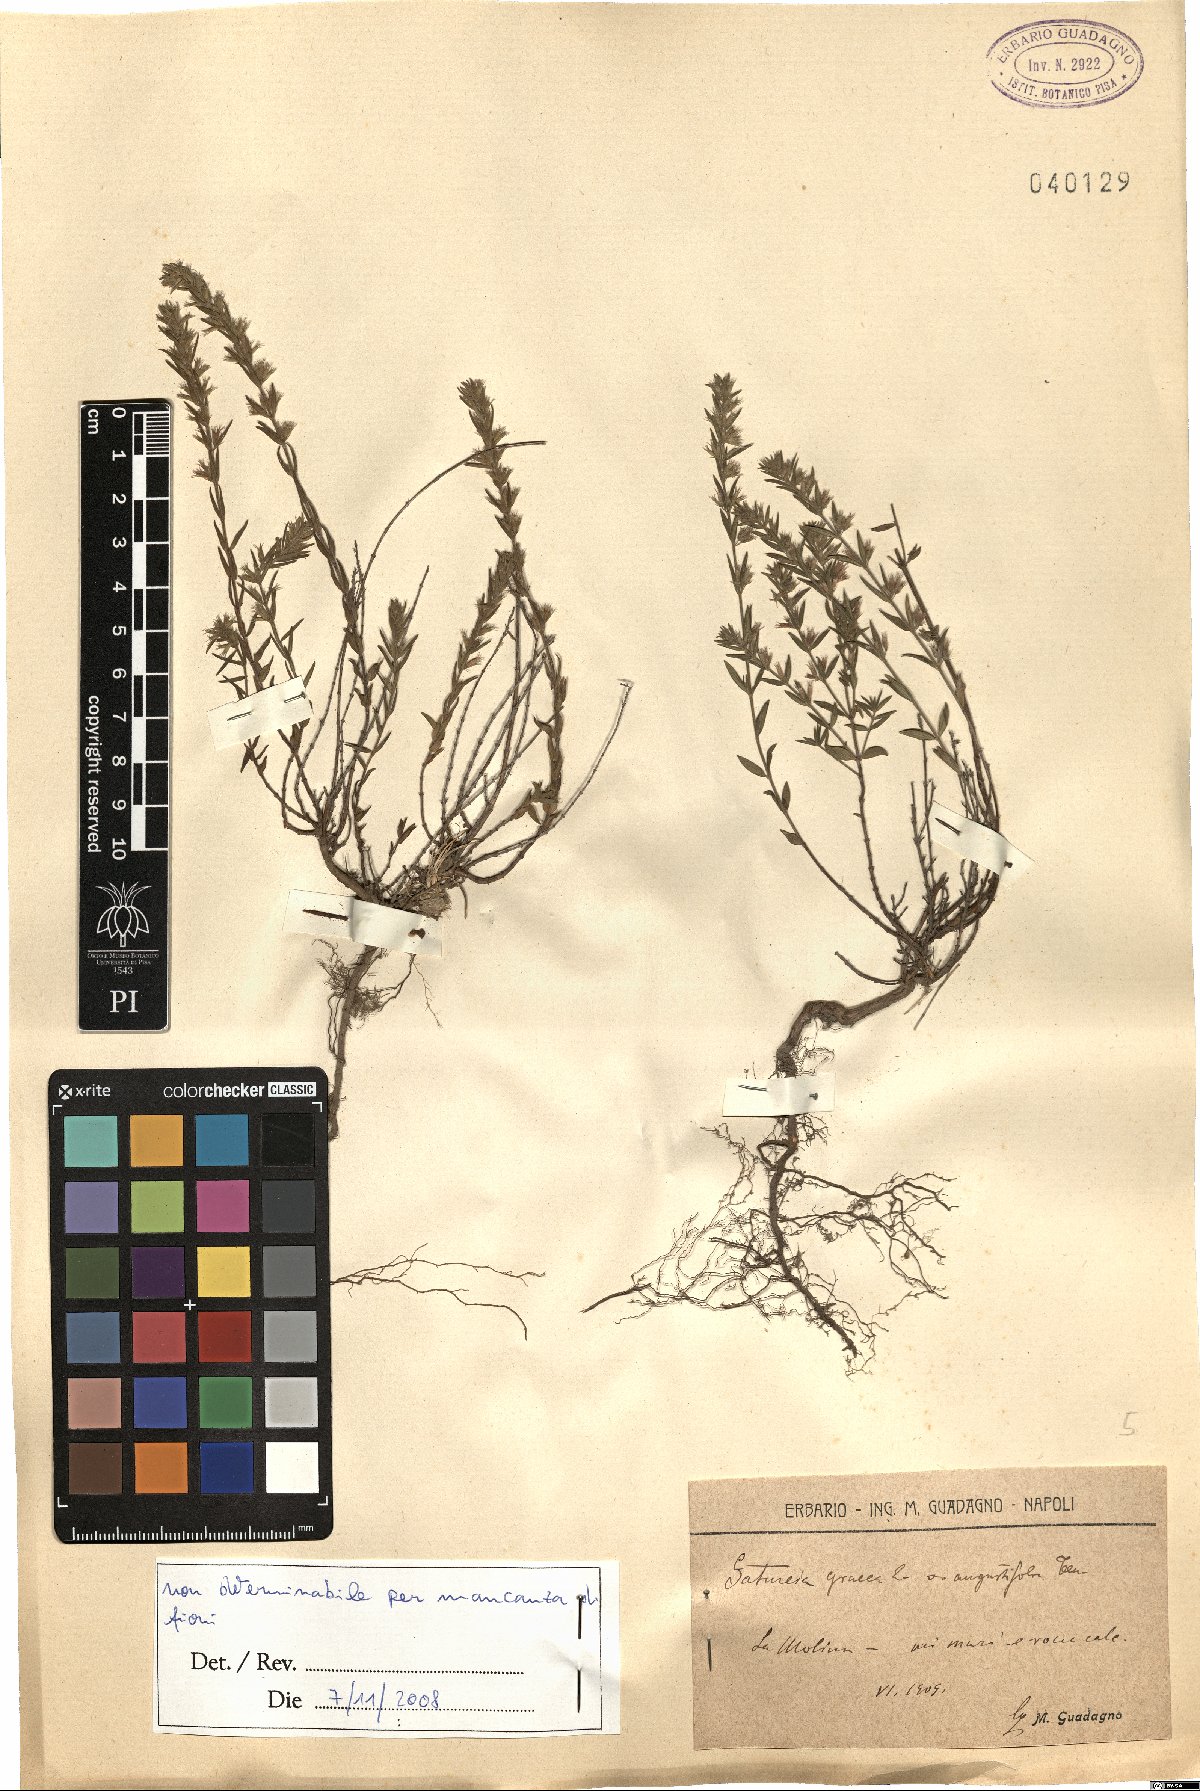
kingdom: Plantae
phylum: Tracheophyta
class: Magnoliopsida
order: Lamiales
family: Lamiaceae
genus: Micromeria
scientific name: Micromeria graeca
